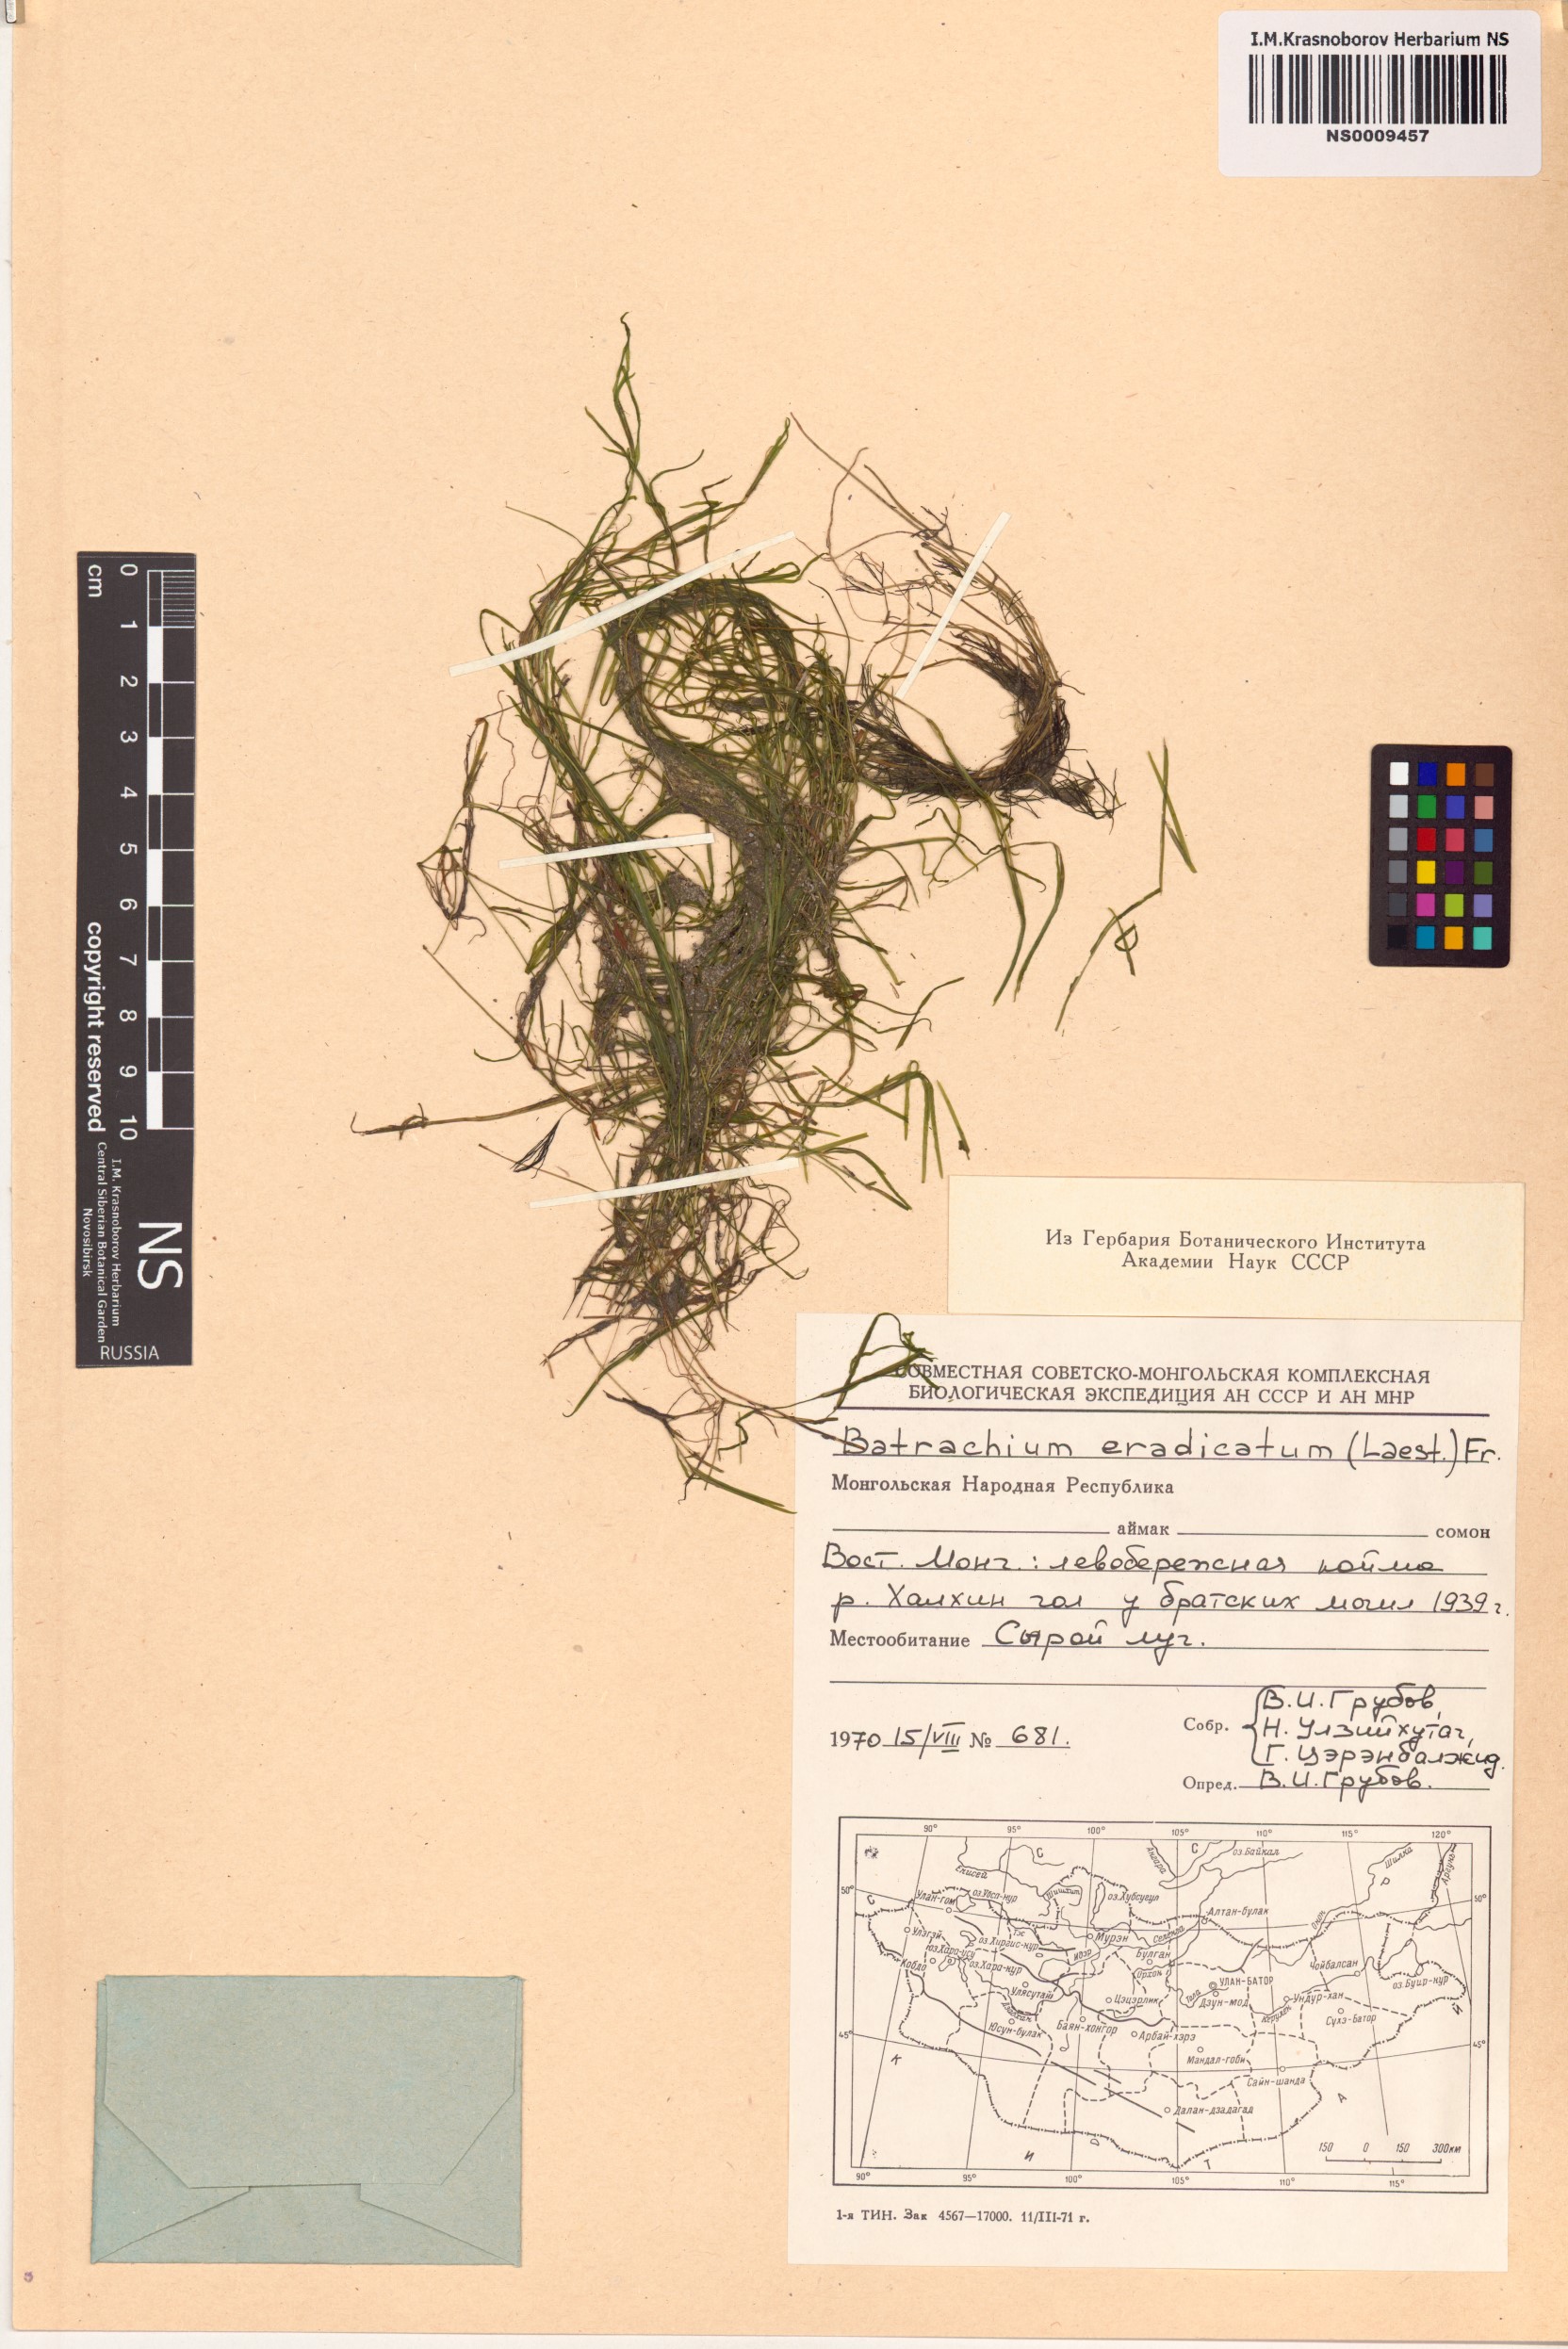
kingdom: Plantae
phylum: Tracheophyta
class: Magnoliopsida
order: Ranunculales
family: Ranunculaceae
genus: Ranunculus
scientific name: Ranunculus confervoides
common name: Delicate buttercup
